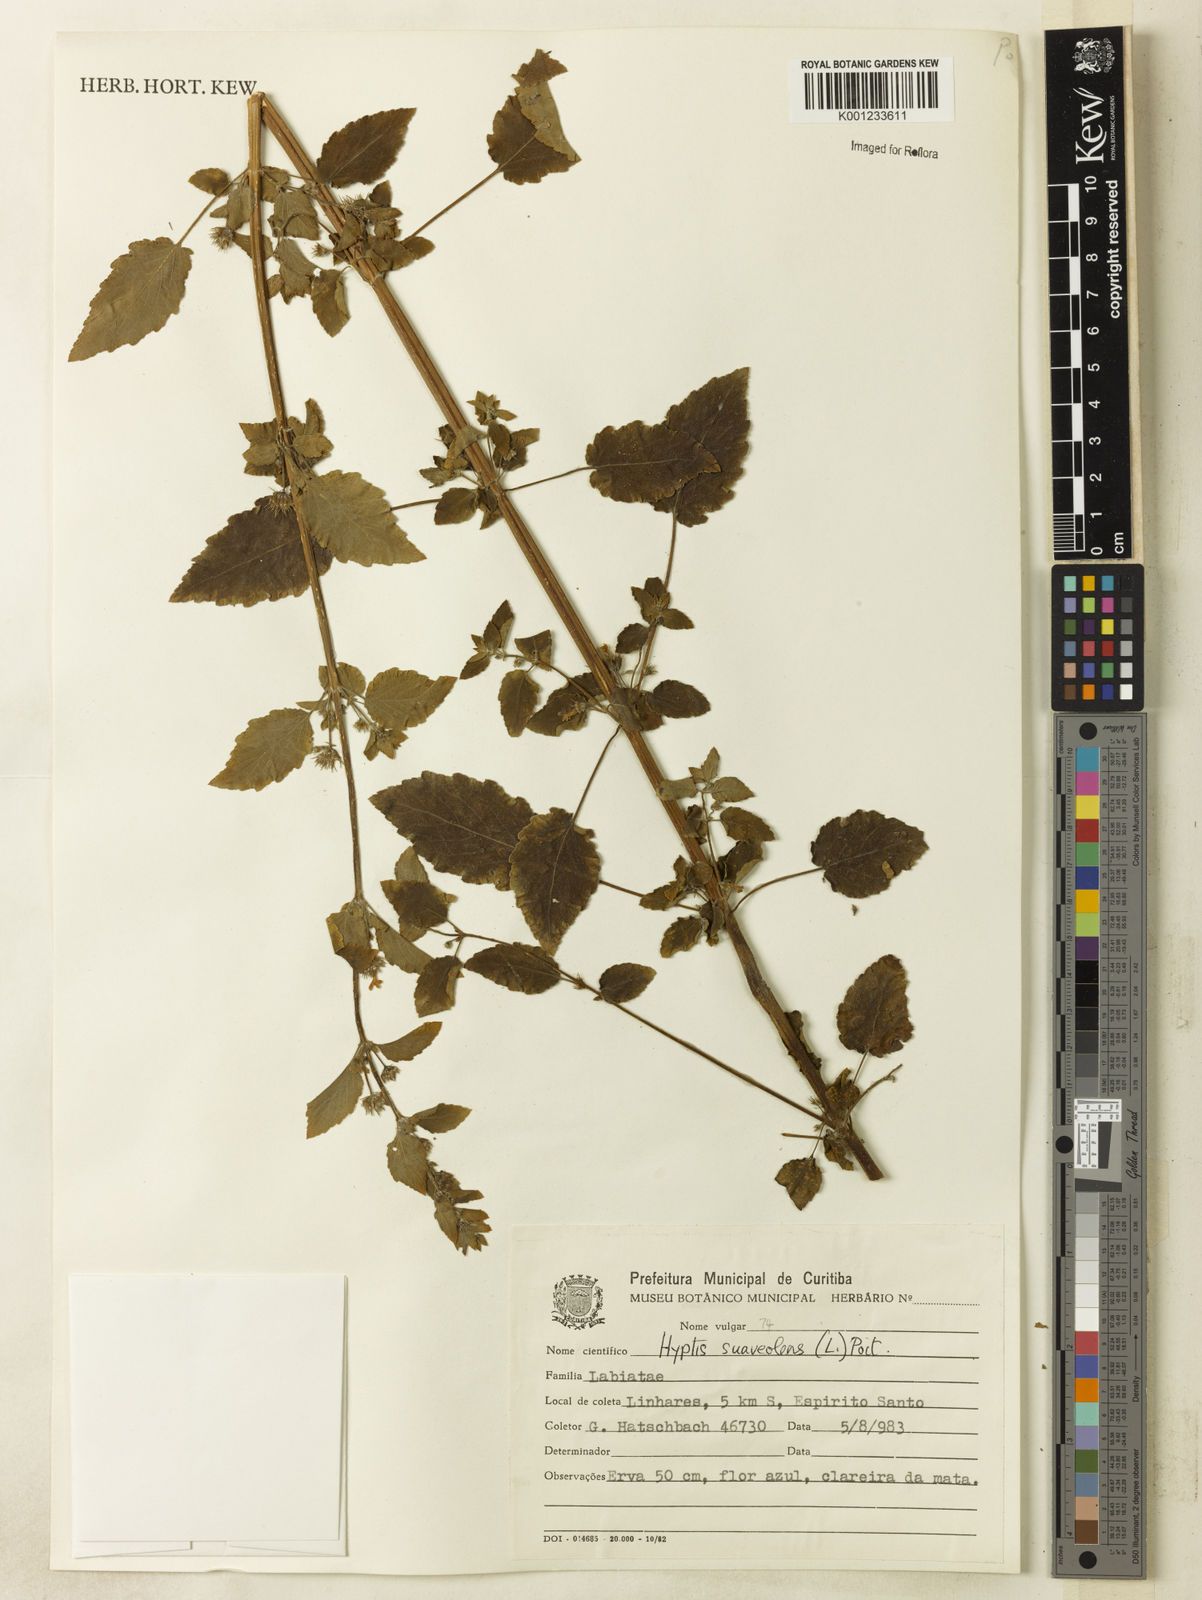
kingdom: Plantae
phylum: Tracheophyta
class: Magnoliopsida
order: Lamiales
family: Lamiaceae
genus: Mesosphaerum
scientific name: Mesosphaerum suaveolens
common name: Pignut
